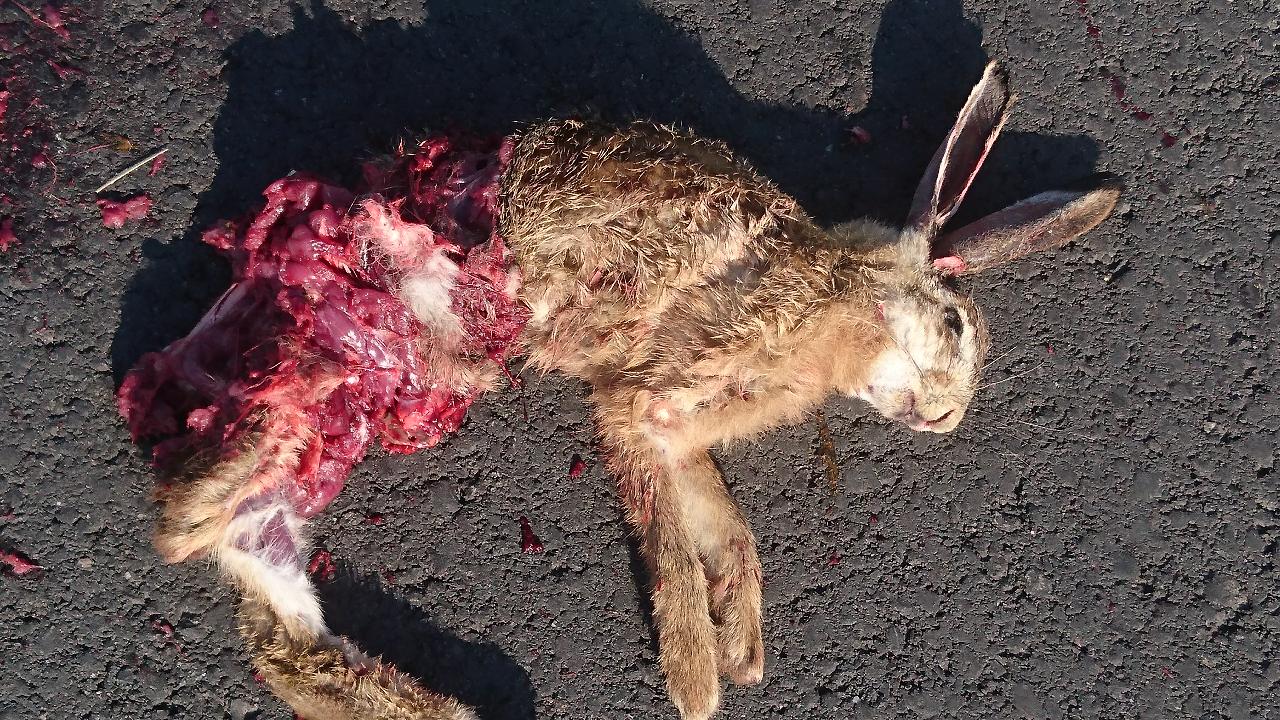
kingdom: Animalia
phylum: Chordata
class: Mammalia
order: Lagomorpha
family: Leporidae
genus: Lepus
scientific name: Lepus europaeus
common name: European hare
